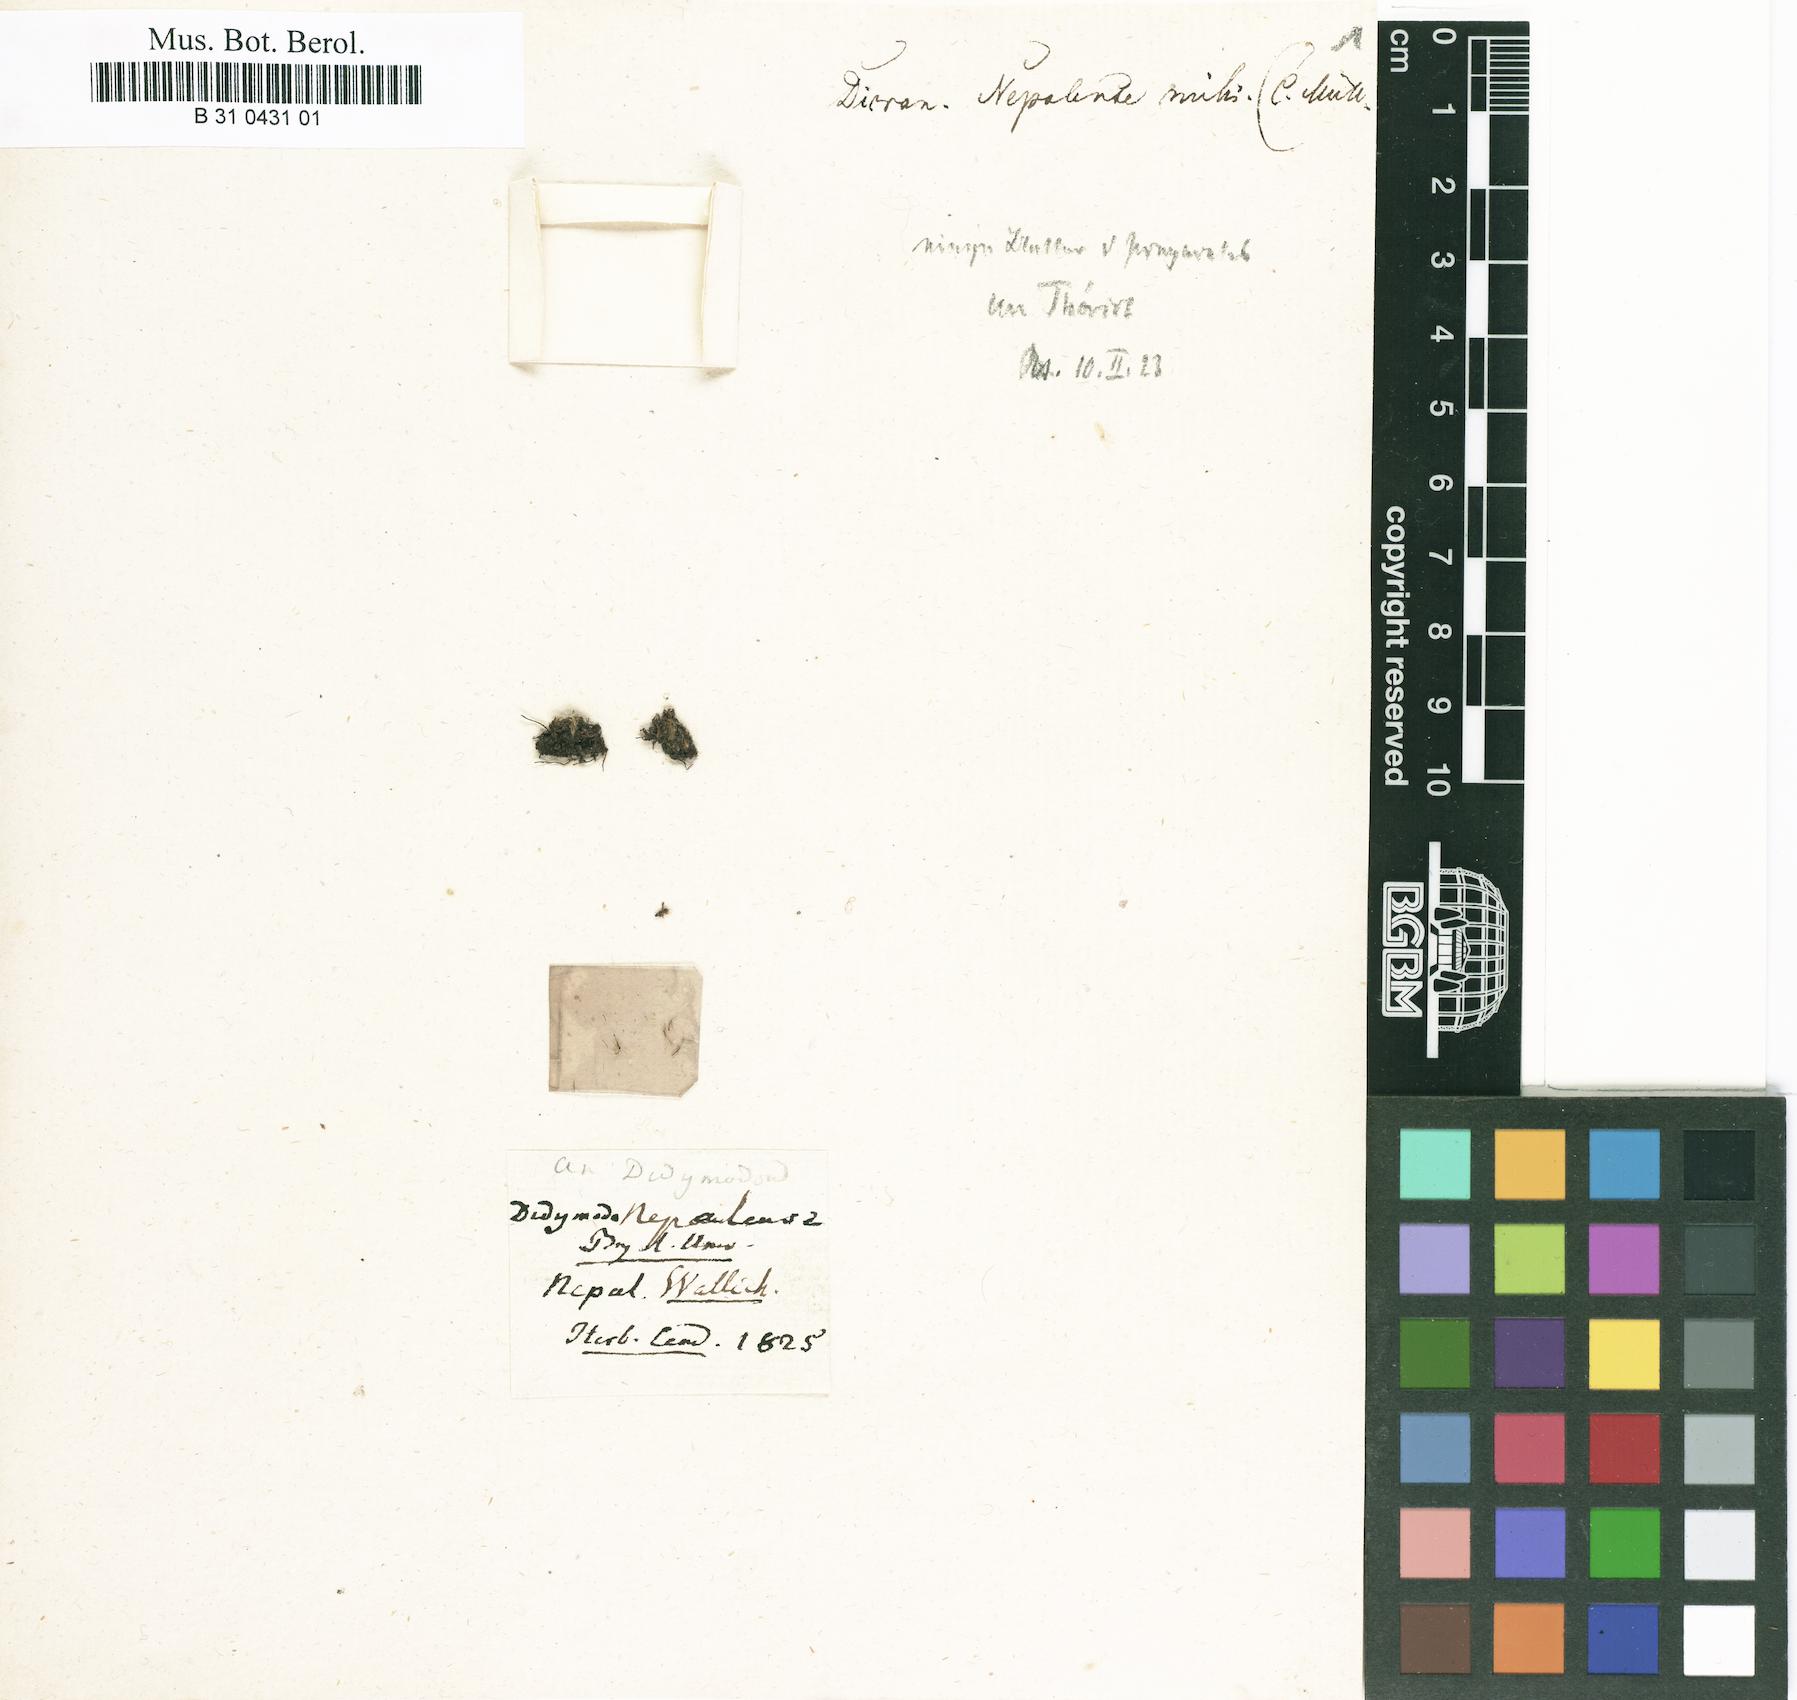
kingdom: Plantae
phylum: Bryophyta
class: Bryopsida
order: Dicranales
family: Leucobryaceae
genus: Campylopus
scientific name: Campylopus nepalensis
